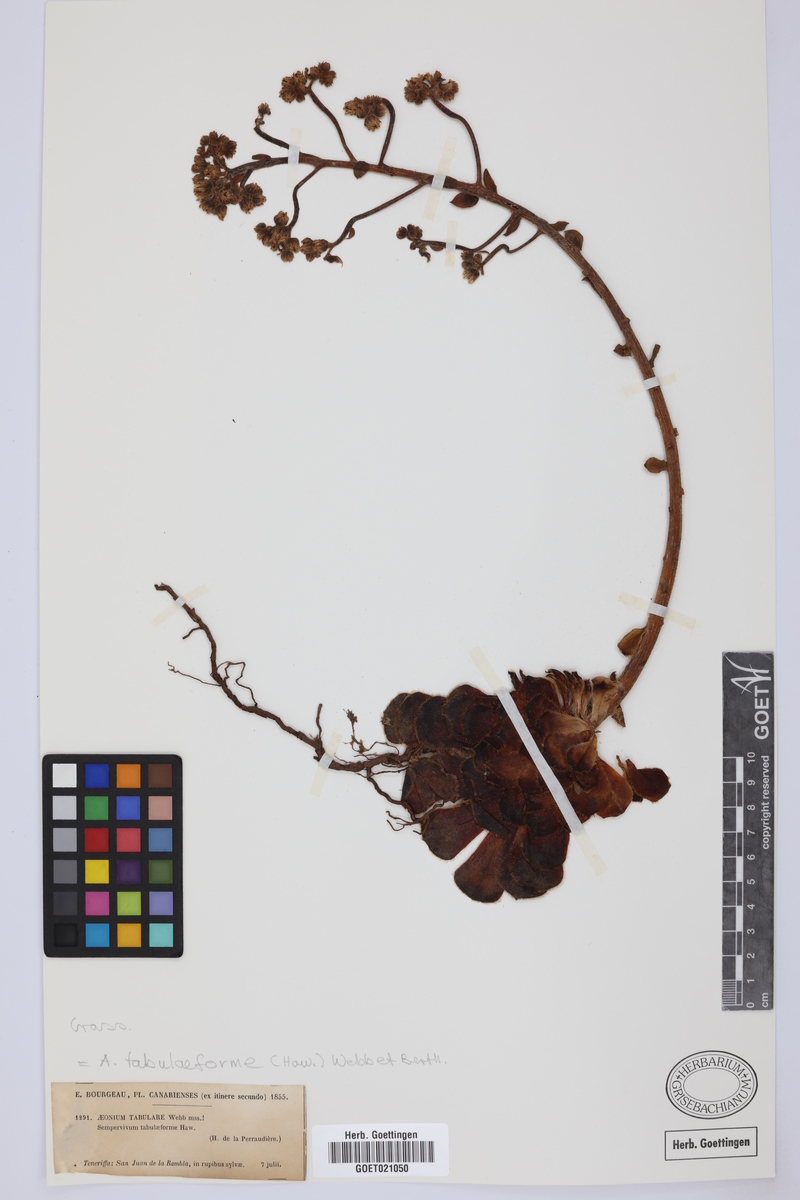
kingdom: Plantae
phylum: Tracheophyta
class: Magnoliopsida
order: Saxifragales
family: Crassulaceae
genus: Aeonium
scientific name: Aeonium tabulaeforme
